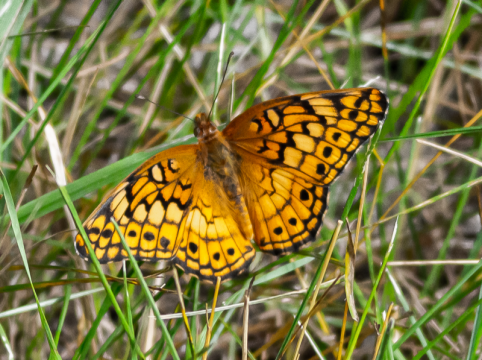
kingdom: Animalia
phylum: Arthropoda
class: Insecta
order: Lepidoptera
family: Nymphalidae
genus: Euptoieta
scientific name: Euptoieta claudia
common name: Variegated Fritillary
